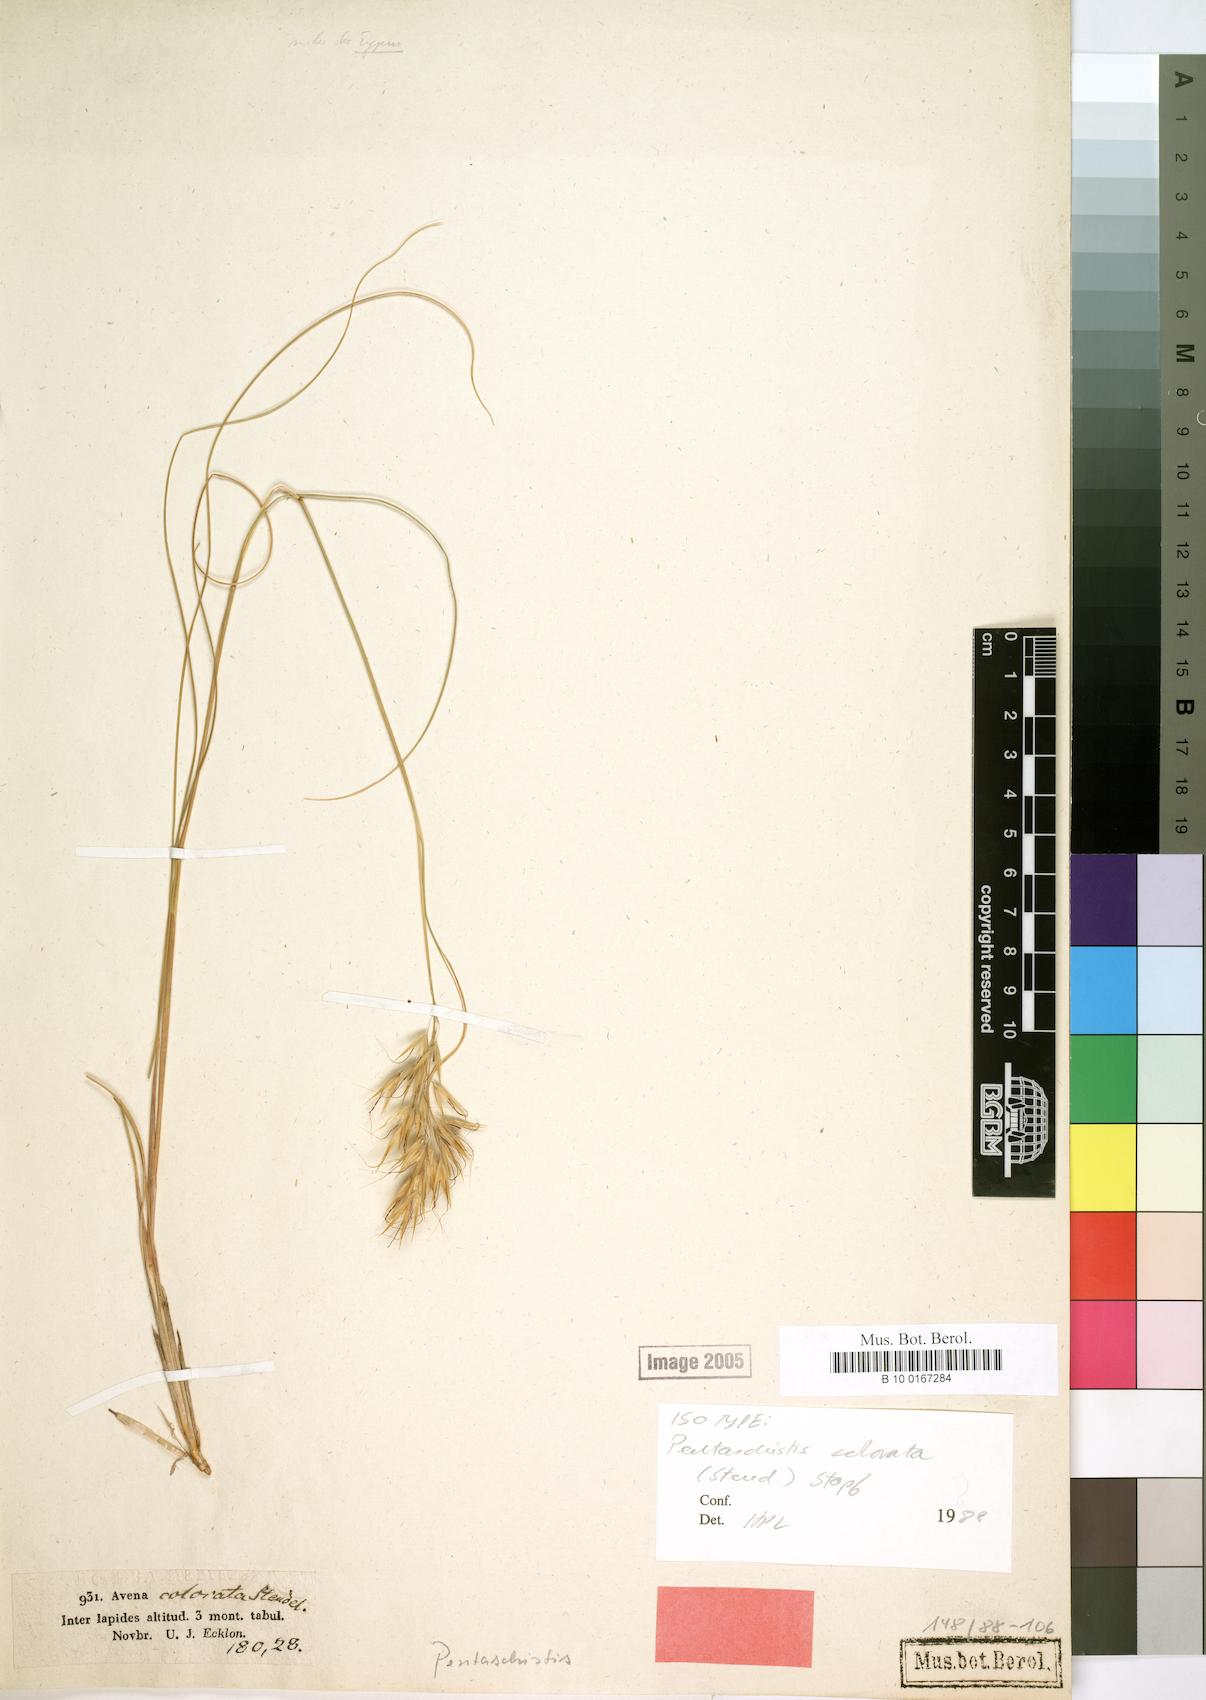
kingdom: Plantae
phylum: Tracheophyta
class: Liliopsida
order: Poales
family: Poaceae
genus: Pentameris
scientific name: Pentameris colorata
